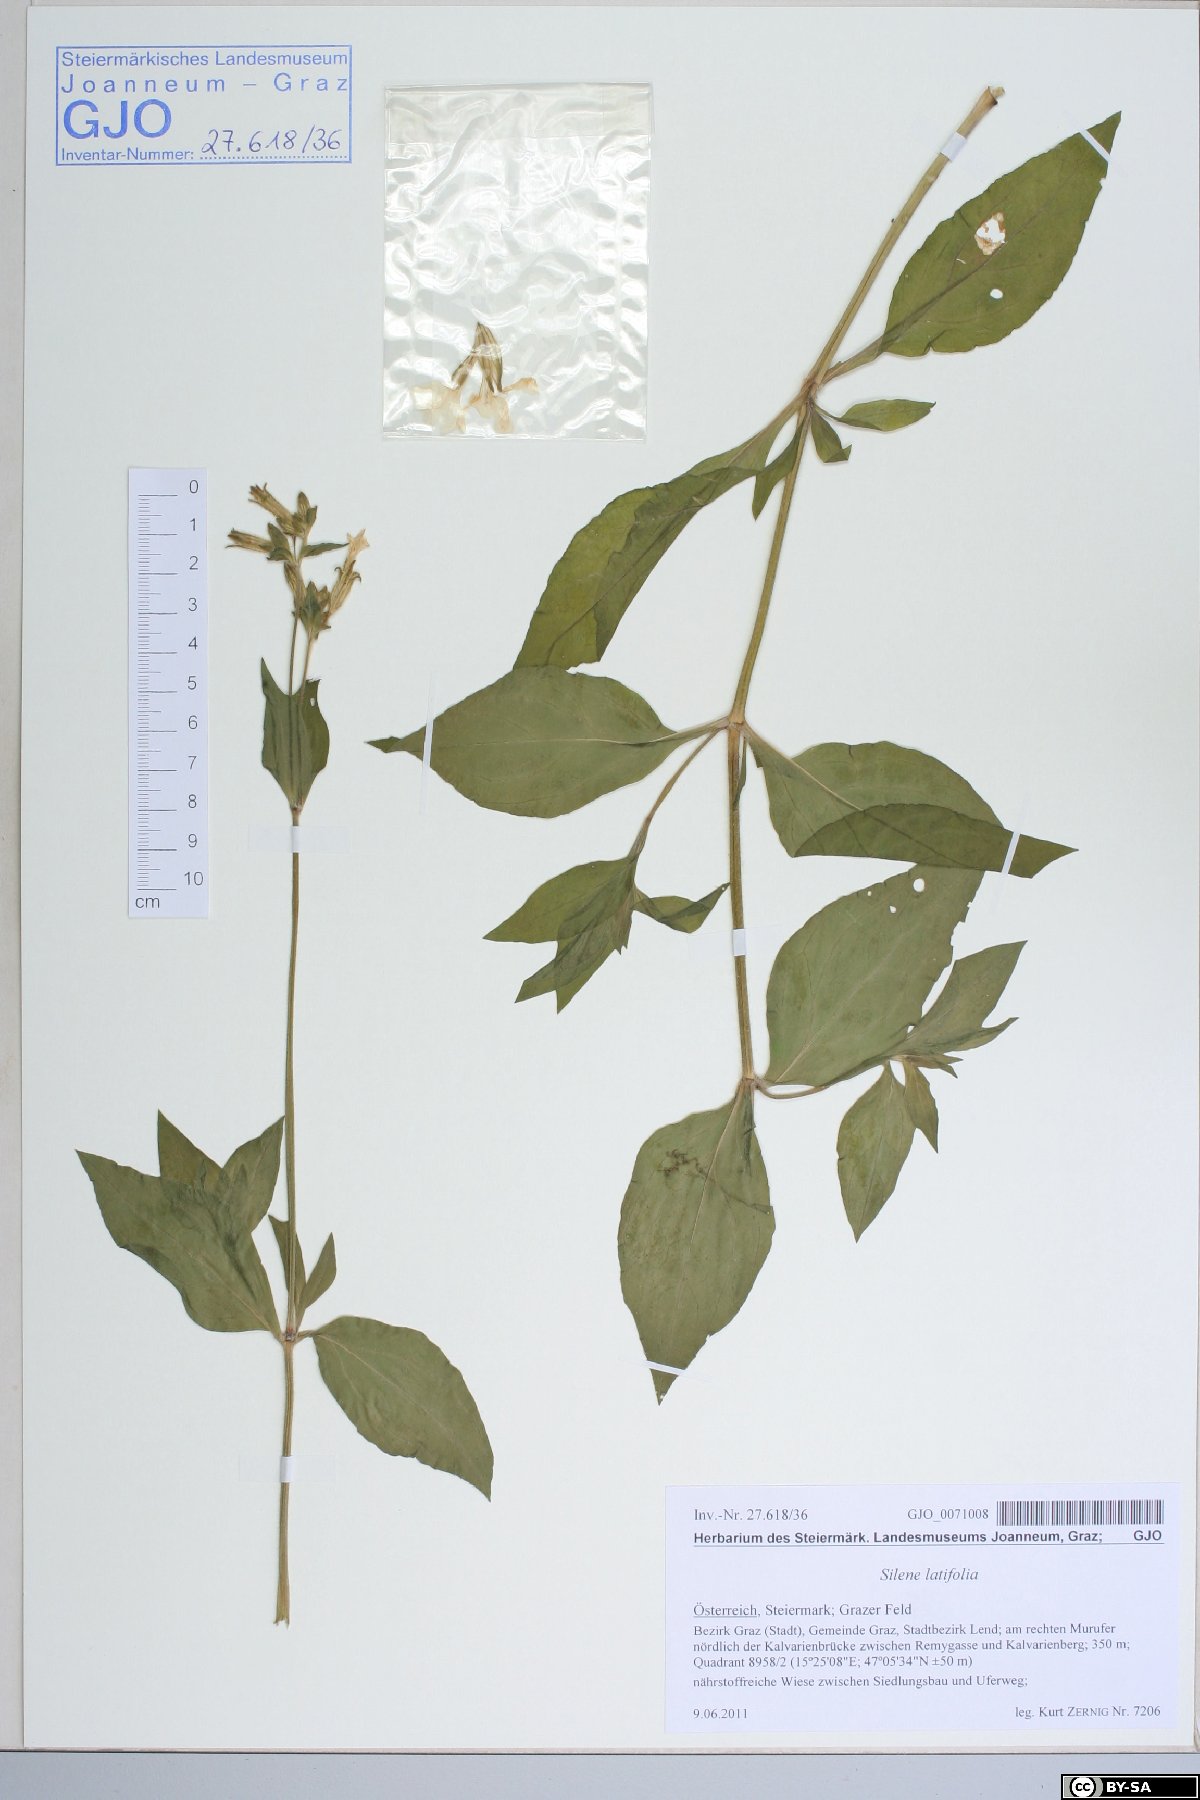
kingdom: Plantae
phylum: Tracheophyta
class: Magnoliopsida
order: Caryophyllales
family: Caryophyllaceae
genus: Silene
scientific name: Silene latifolia
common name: White campion
